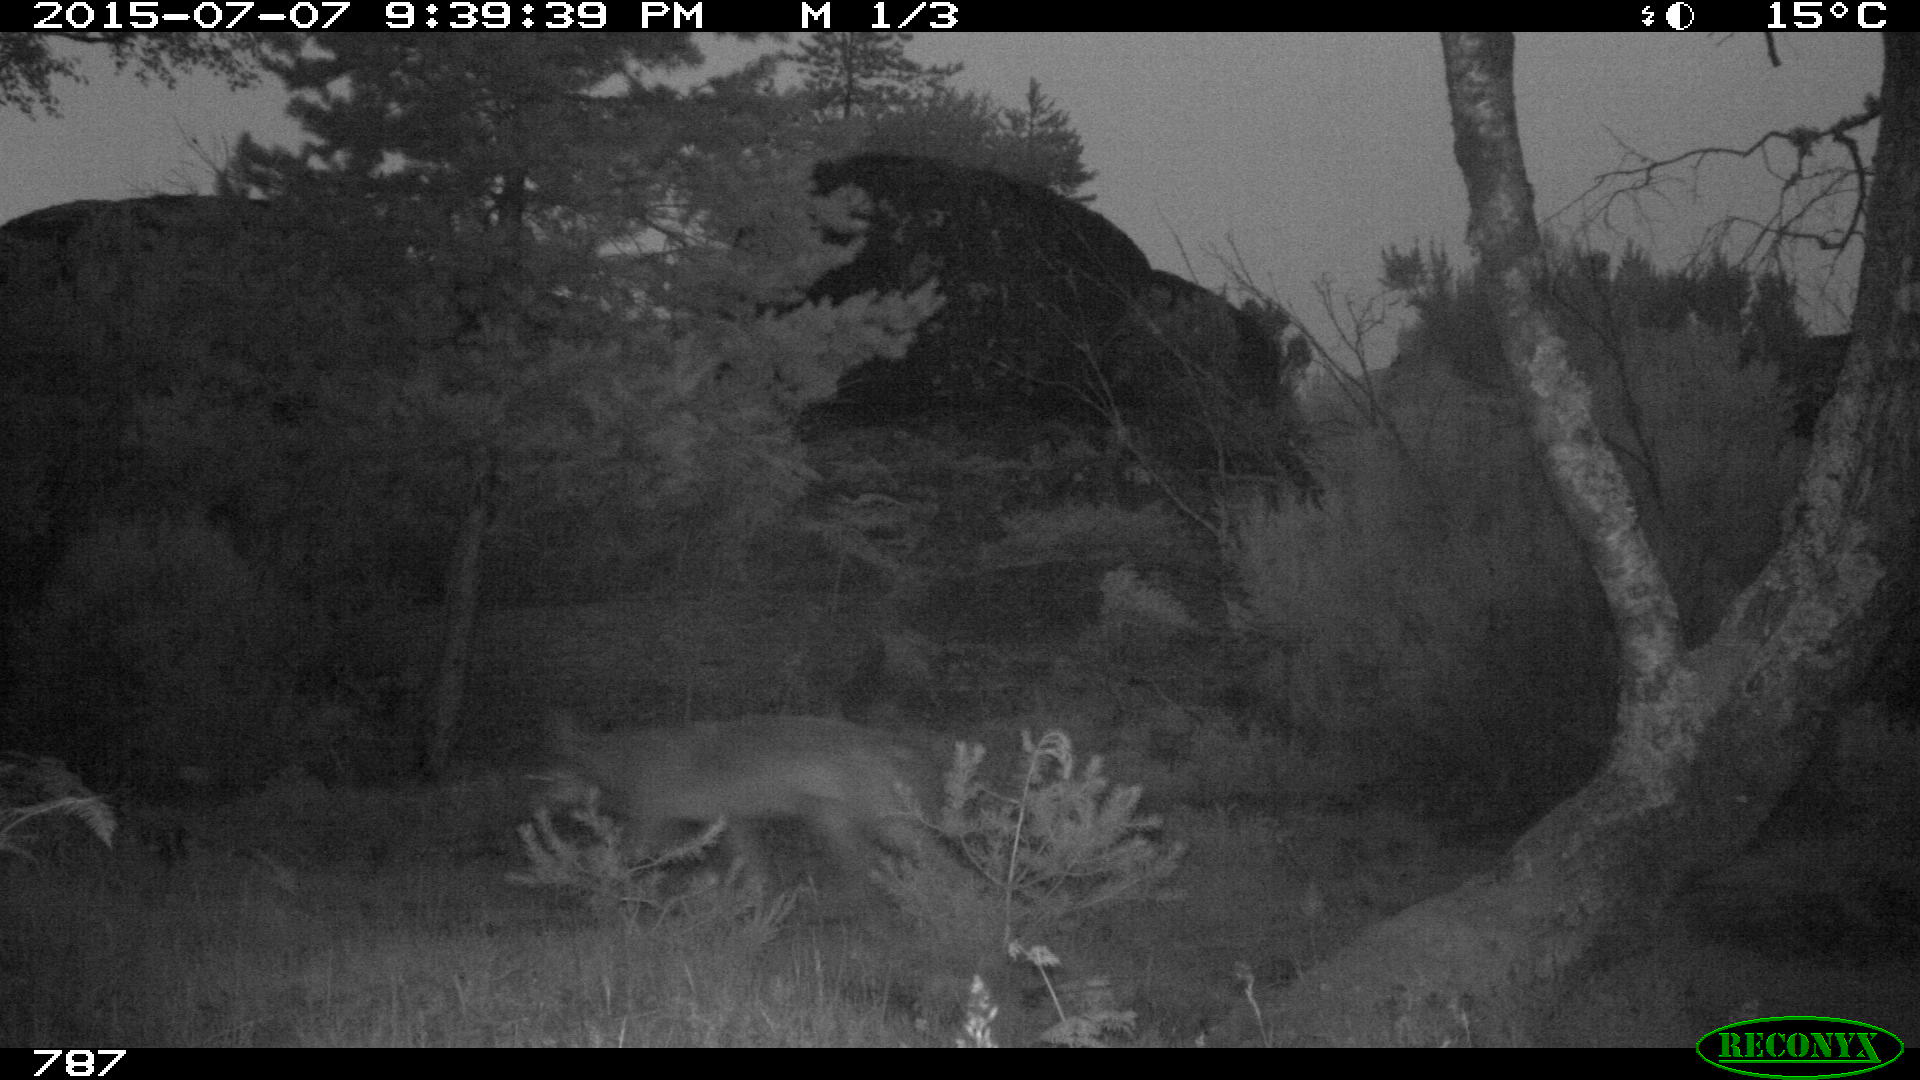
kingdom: Animalia
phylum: Chordata
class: Mammalia
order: Carnivora
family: Canidae
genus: Canis
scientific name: Canis lupus
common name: Gray wolf
